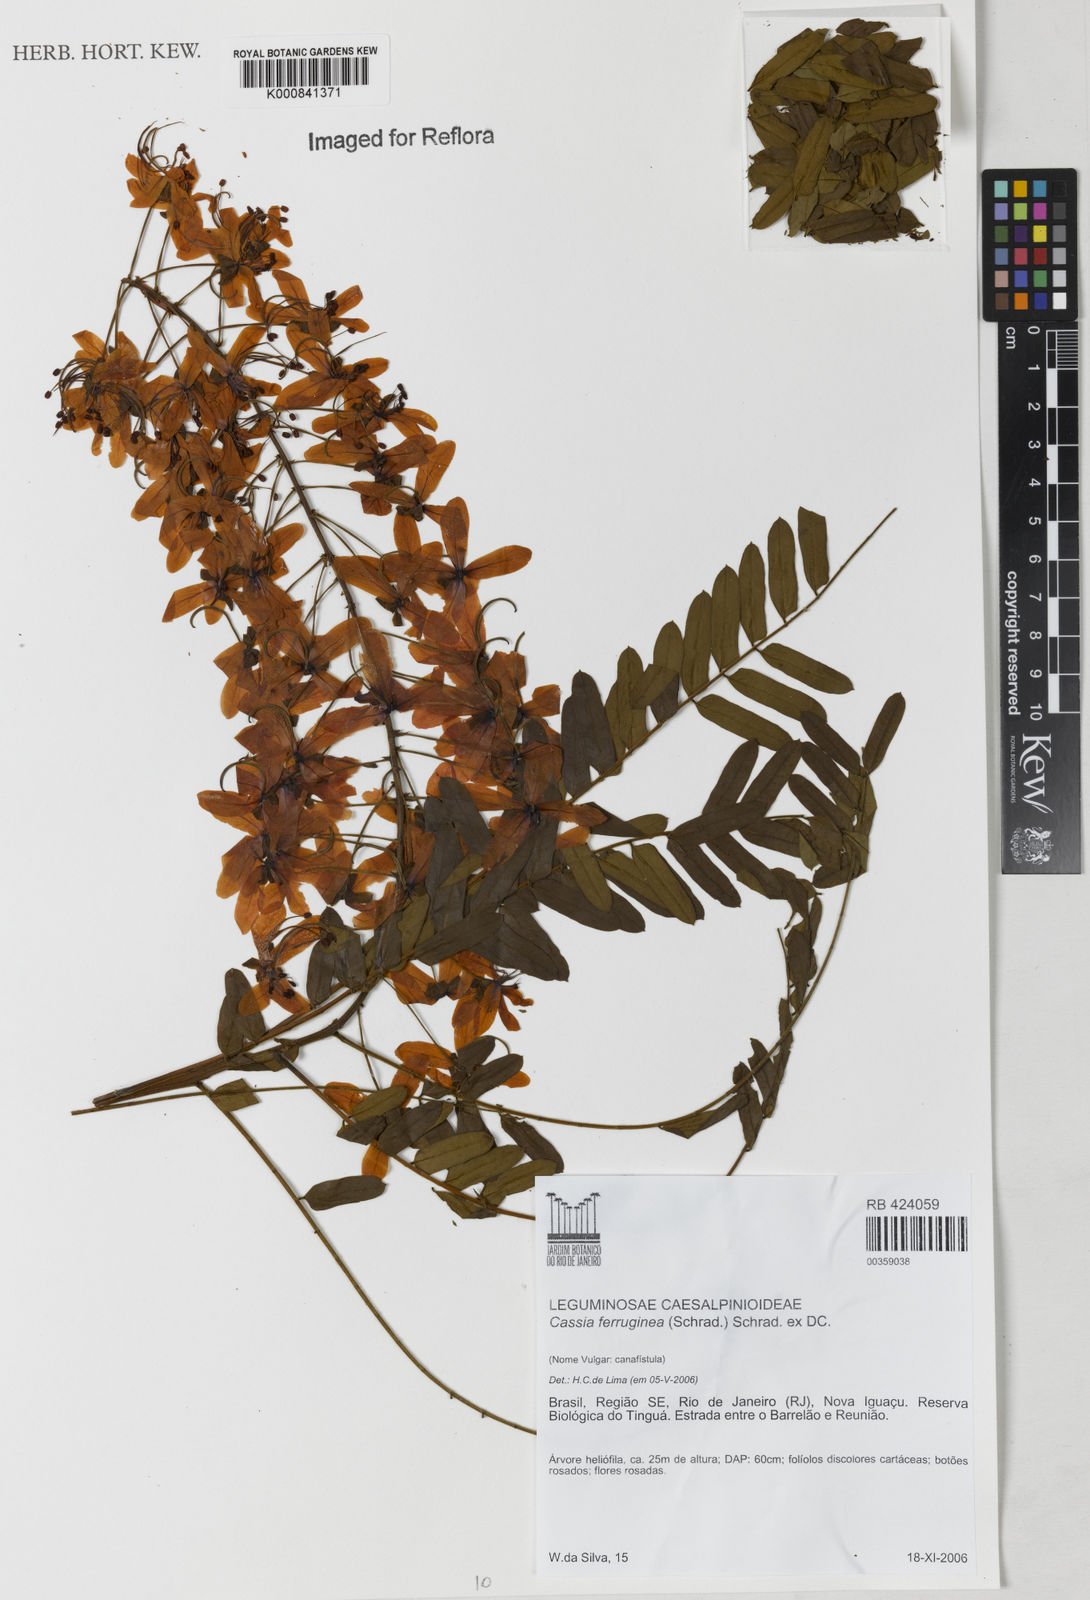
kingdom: Plantae
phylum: Tracheophyta
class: Magnoliopsida
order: Fabales
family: Fabaceae
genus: Cassia
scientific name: Cassia ferruginea
